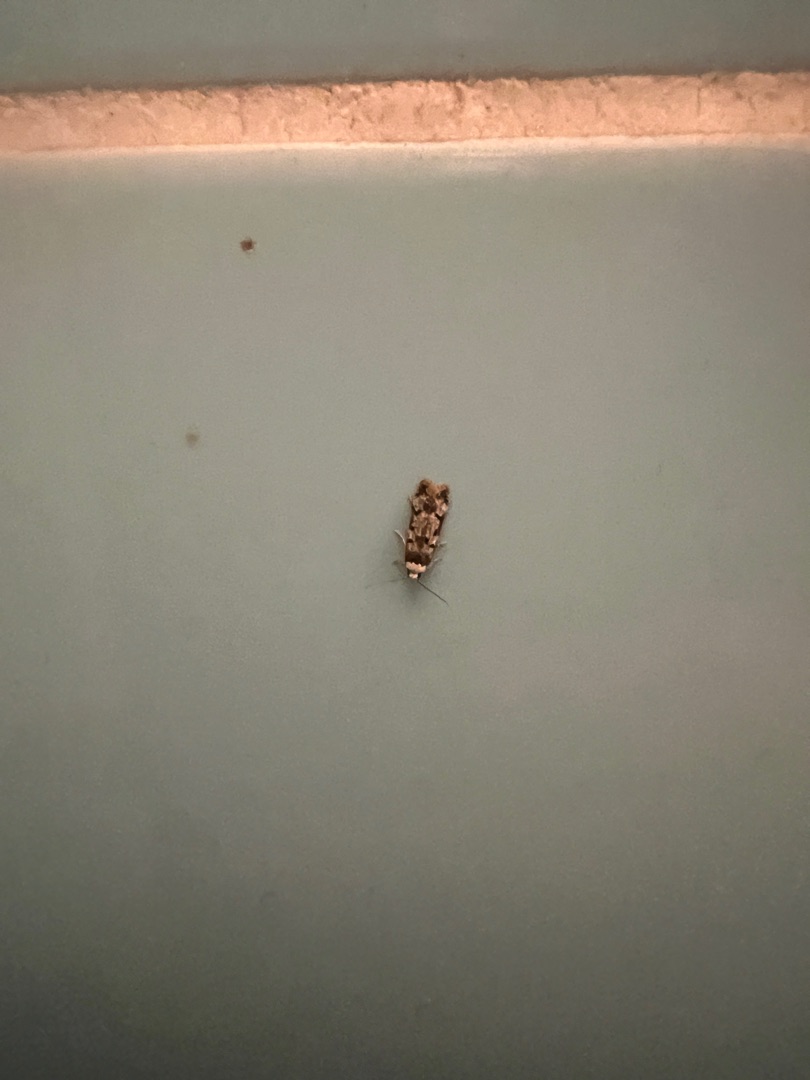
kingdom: Animalia
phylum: Arthropoda
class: Insecta
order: Lepidoptera
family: Oecophoridae
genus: Endrosis
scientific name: Endrosis sarcitrella
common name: Klistermøl
